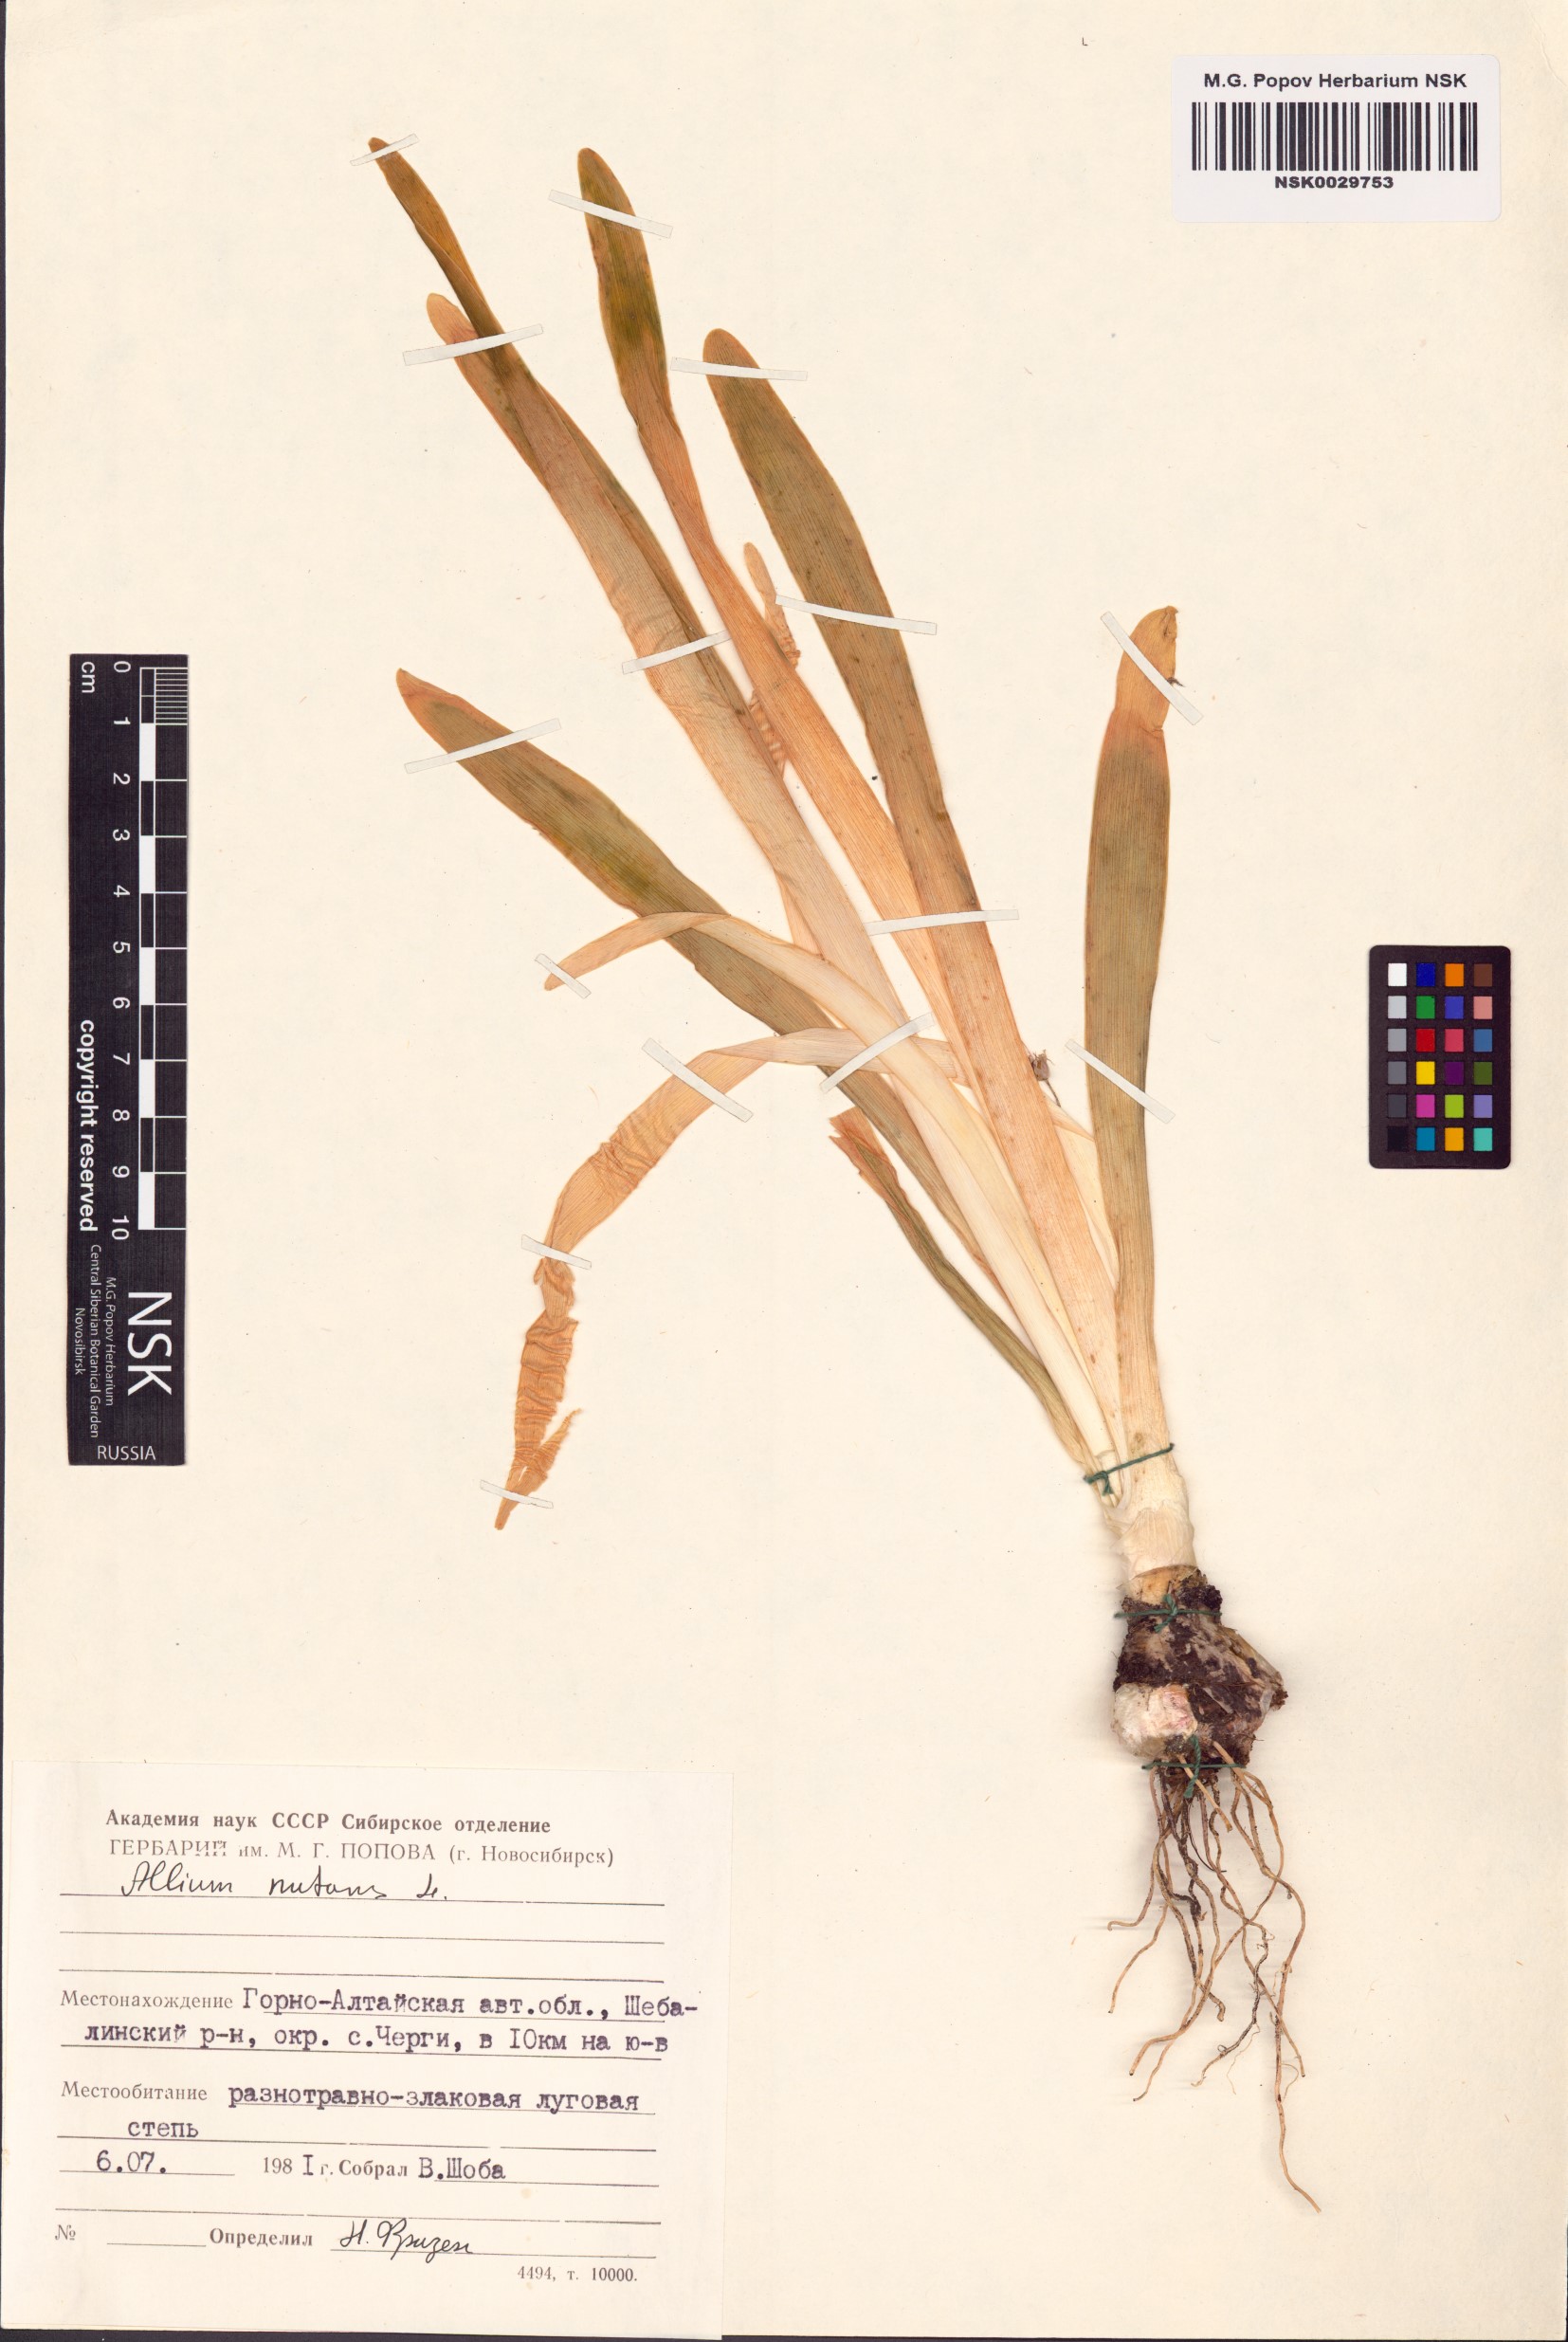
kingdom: Plantae
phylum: Tracheophyta
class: Liliopsida
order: Asparagales
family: Amaryllidaceae
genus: Allium
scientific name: Allium nutans
